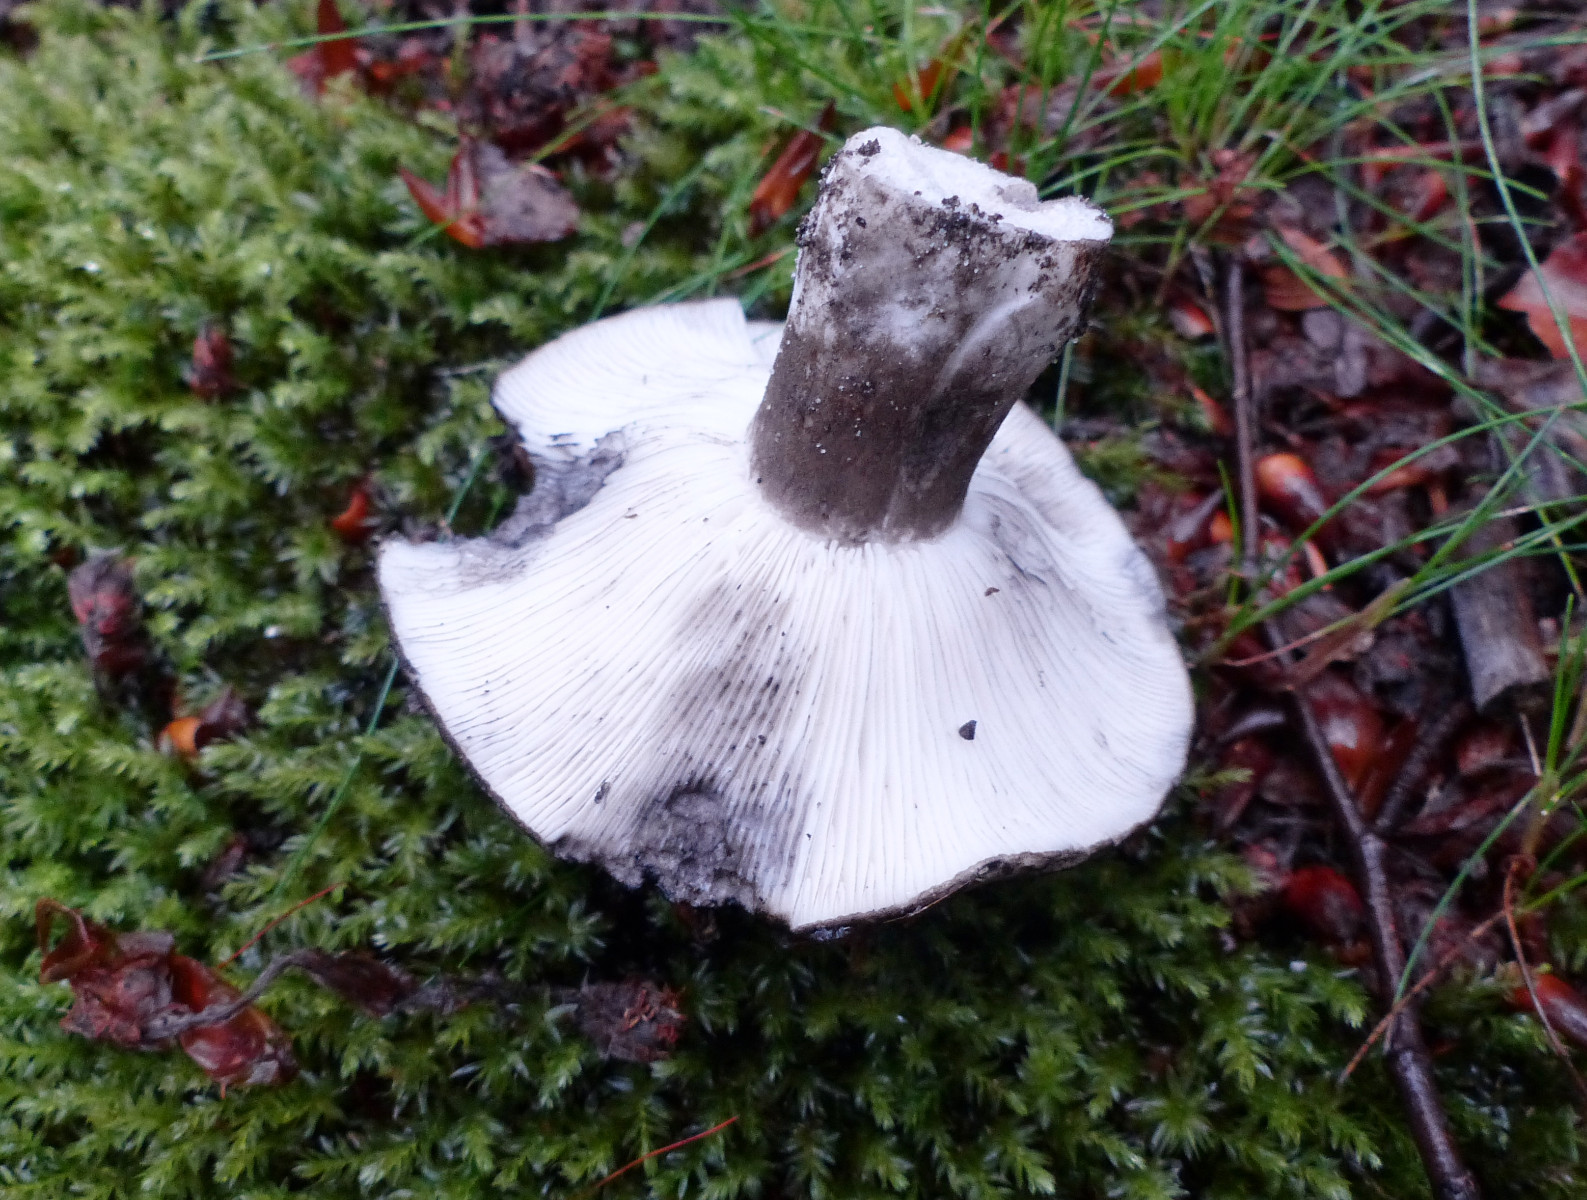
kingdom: Fungi
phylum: Basidiomycota
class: Agaricomycetes
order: Russulales
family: Russulaceae
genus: Russula
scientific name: Russula albonigra
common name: sorthvid skørhat
